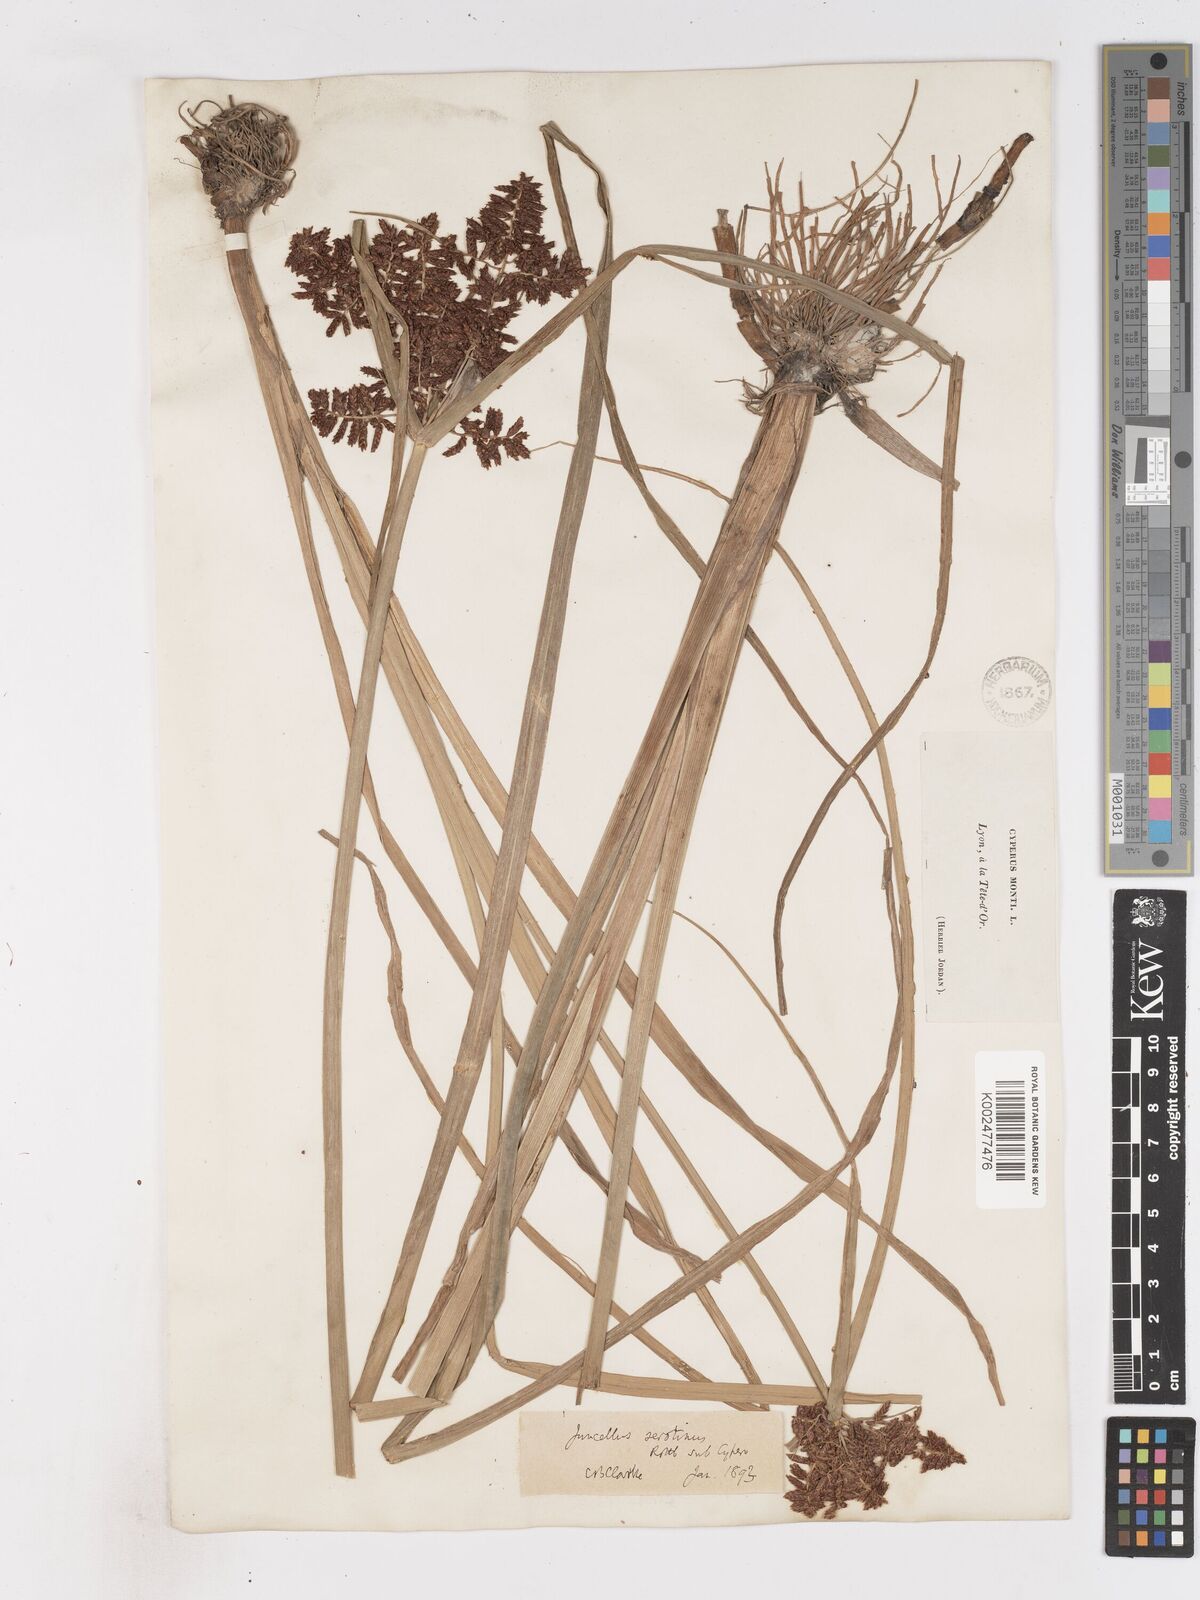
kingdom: Plantae
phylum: Tracheophyta
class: Liliopsida
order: Poales
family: Cyperaceae
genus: Cyperus
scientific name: Cyperus serotinus
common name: Tidalmarsh flatsedge
